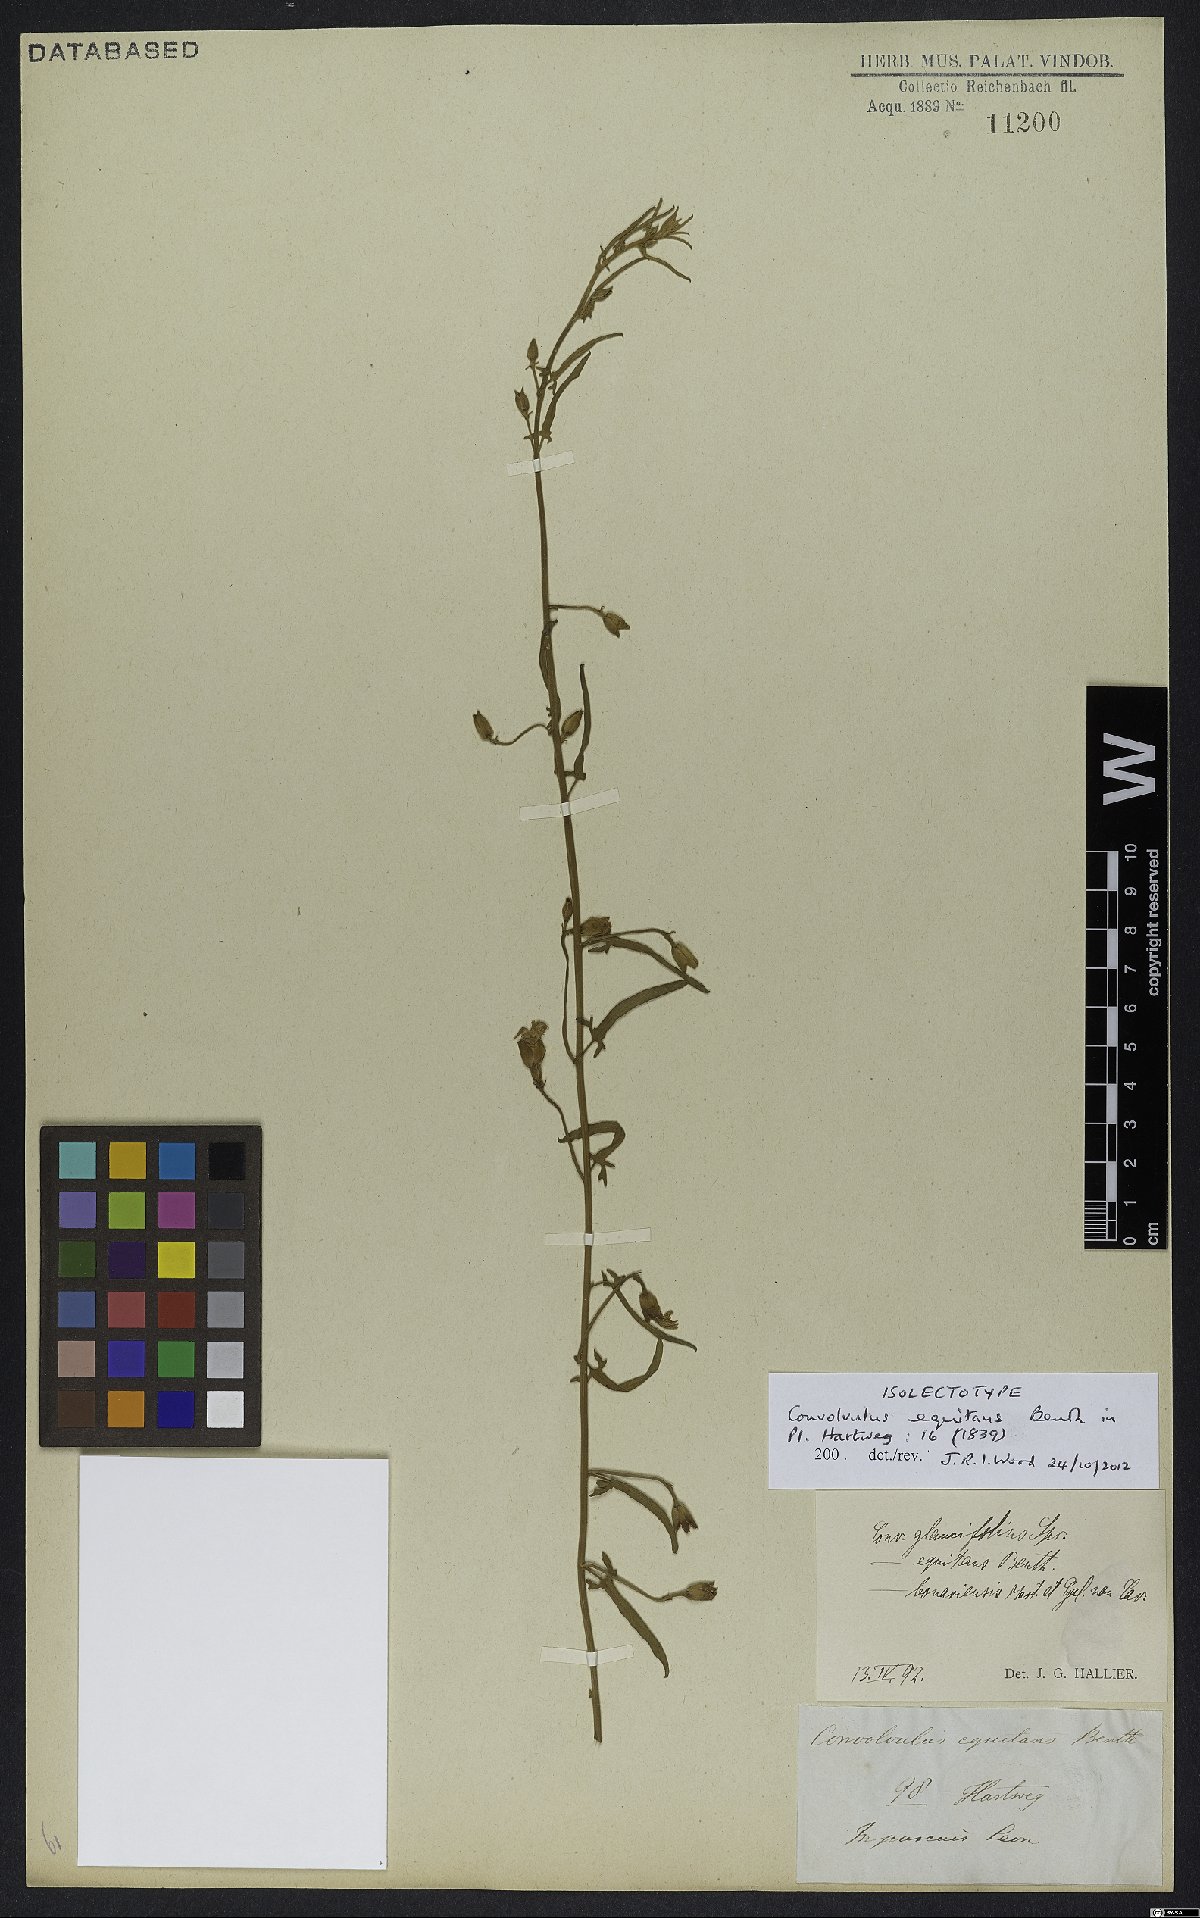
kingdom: Plantae
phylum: Tracheophyta
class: Magnoliopsida
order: Solanales
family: Convolvulaceae
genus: Convolvulus
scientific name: Convolvulus equitans
